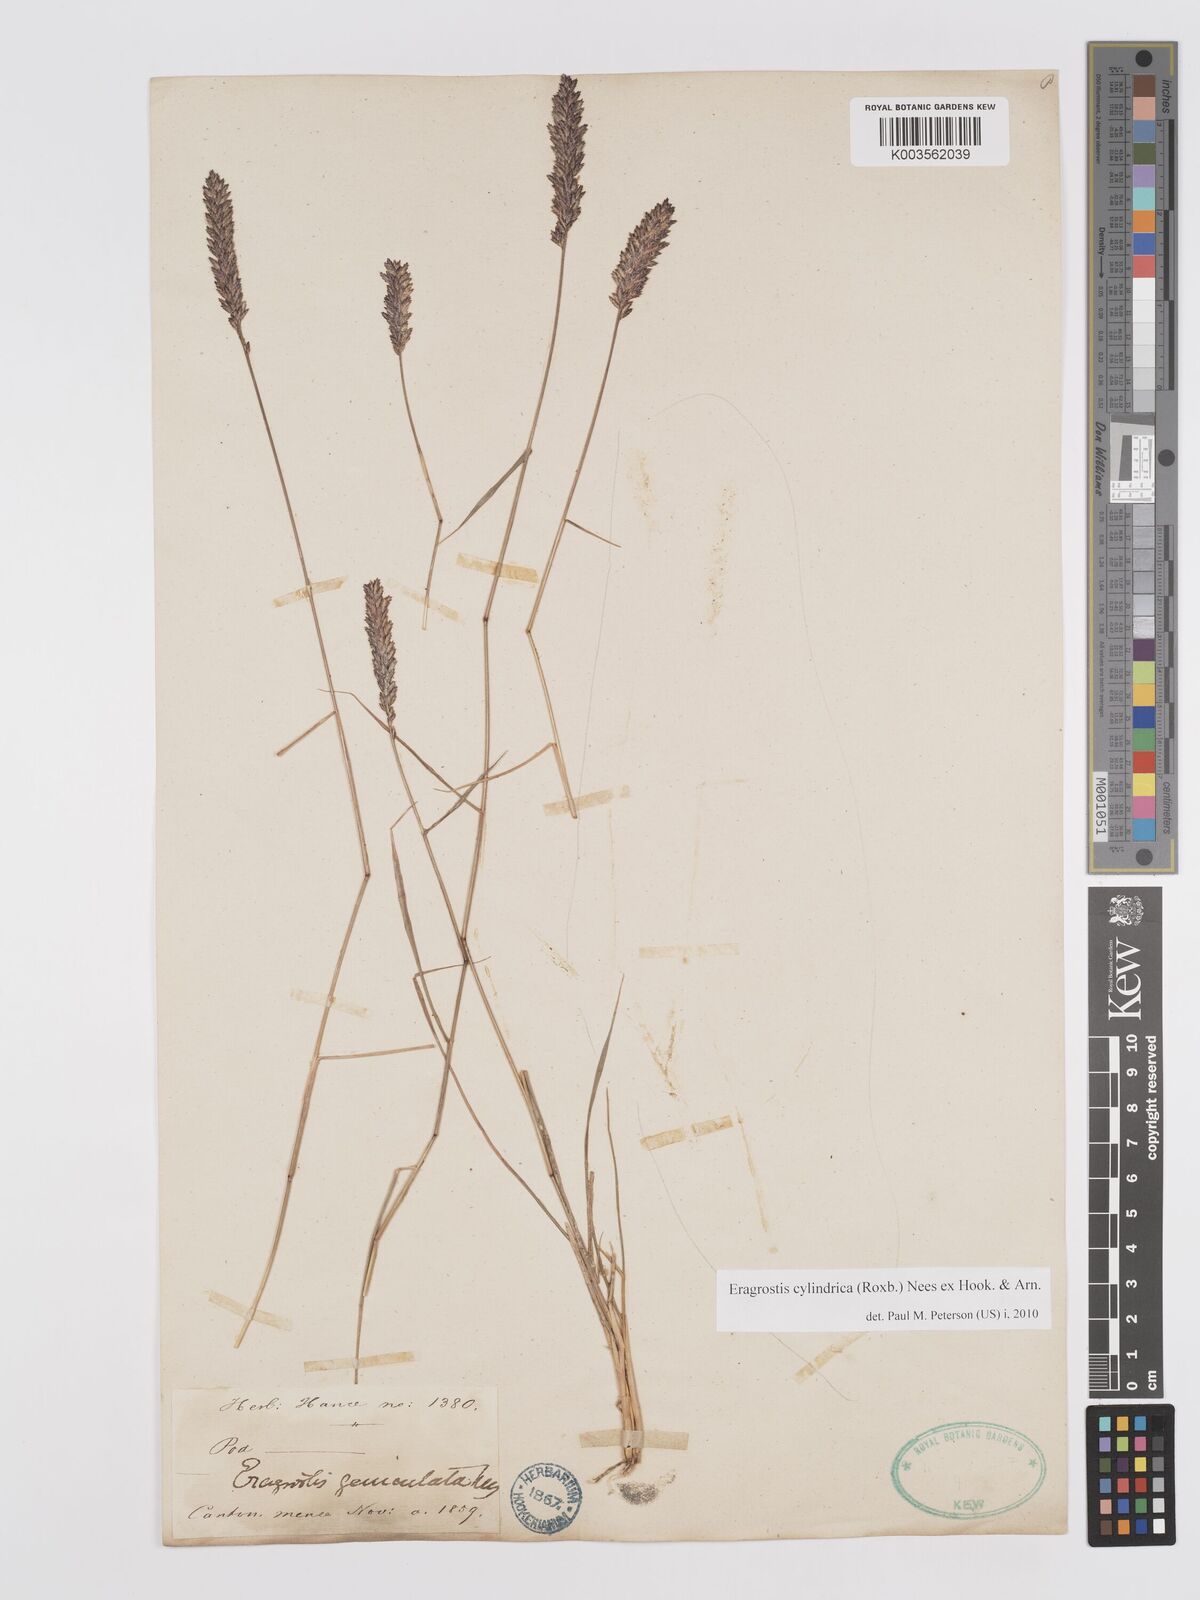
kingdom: Plantae
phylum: Tracheophyta
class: Liliopsida
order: Poales
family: Poaceae
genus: Eragrostis
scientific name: Eragrostis cylindrica
